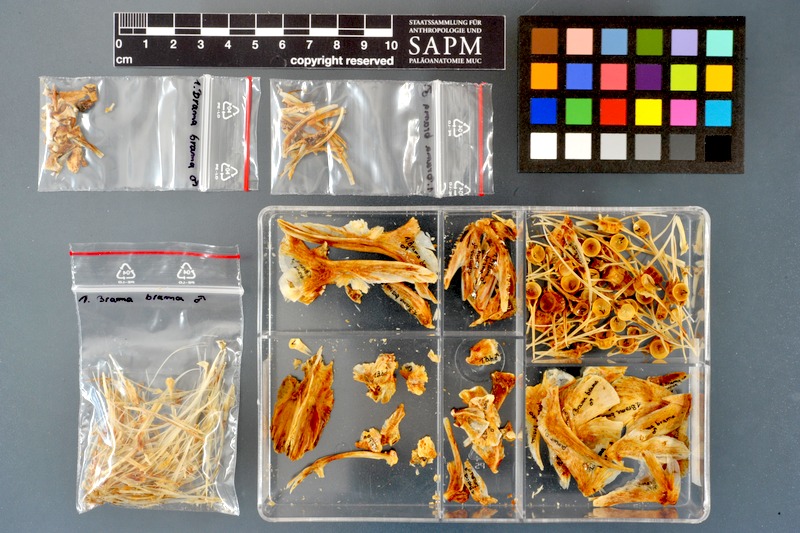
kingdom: Animalia
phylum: Chordata
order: Perciformes
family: Bramidae
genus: Brama
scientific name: Brama brama
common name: Ray's bream
